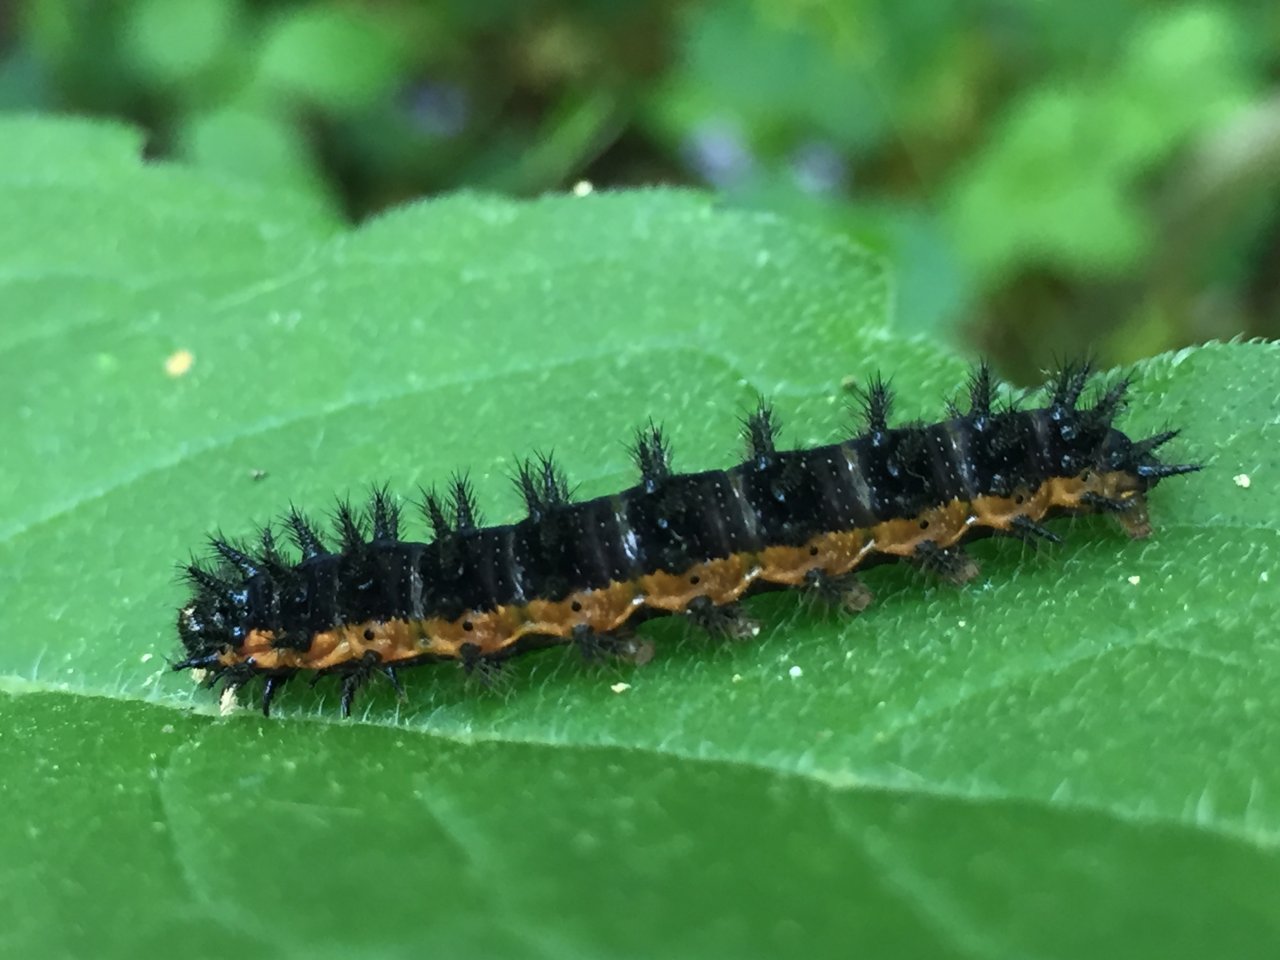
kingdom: Animalia
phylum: Arthropoda
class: Insecta
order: Lepidoptera
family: Nymphalidae
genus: Chlosyne
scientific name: Chlosyne nycteis
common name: Silvery Checkerspot
